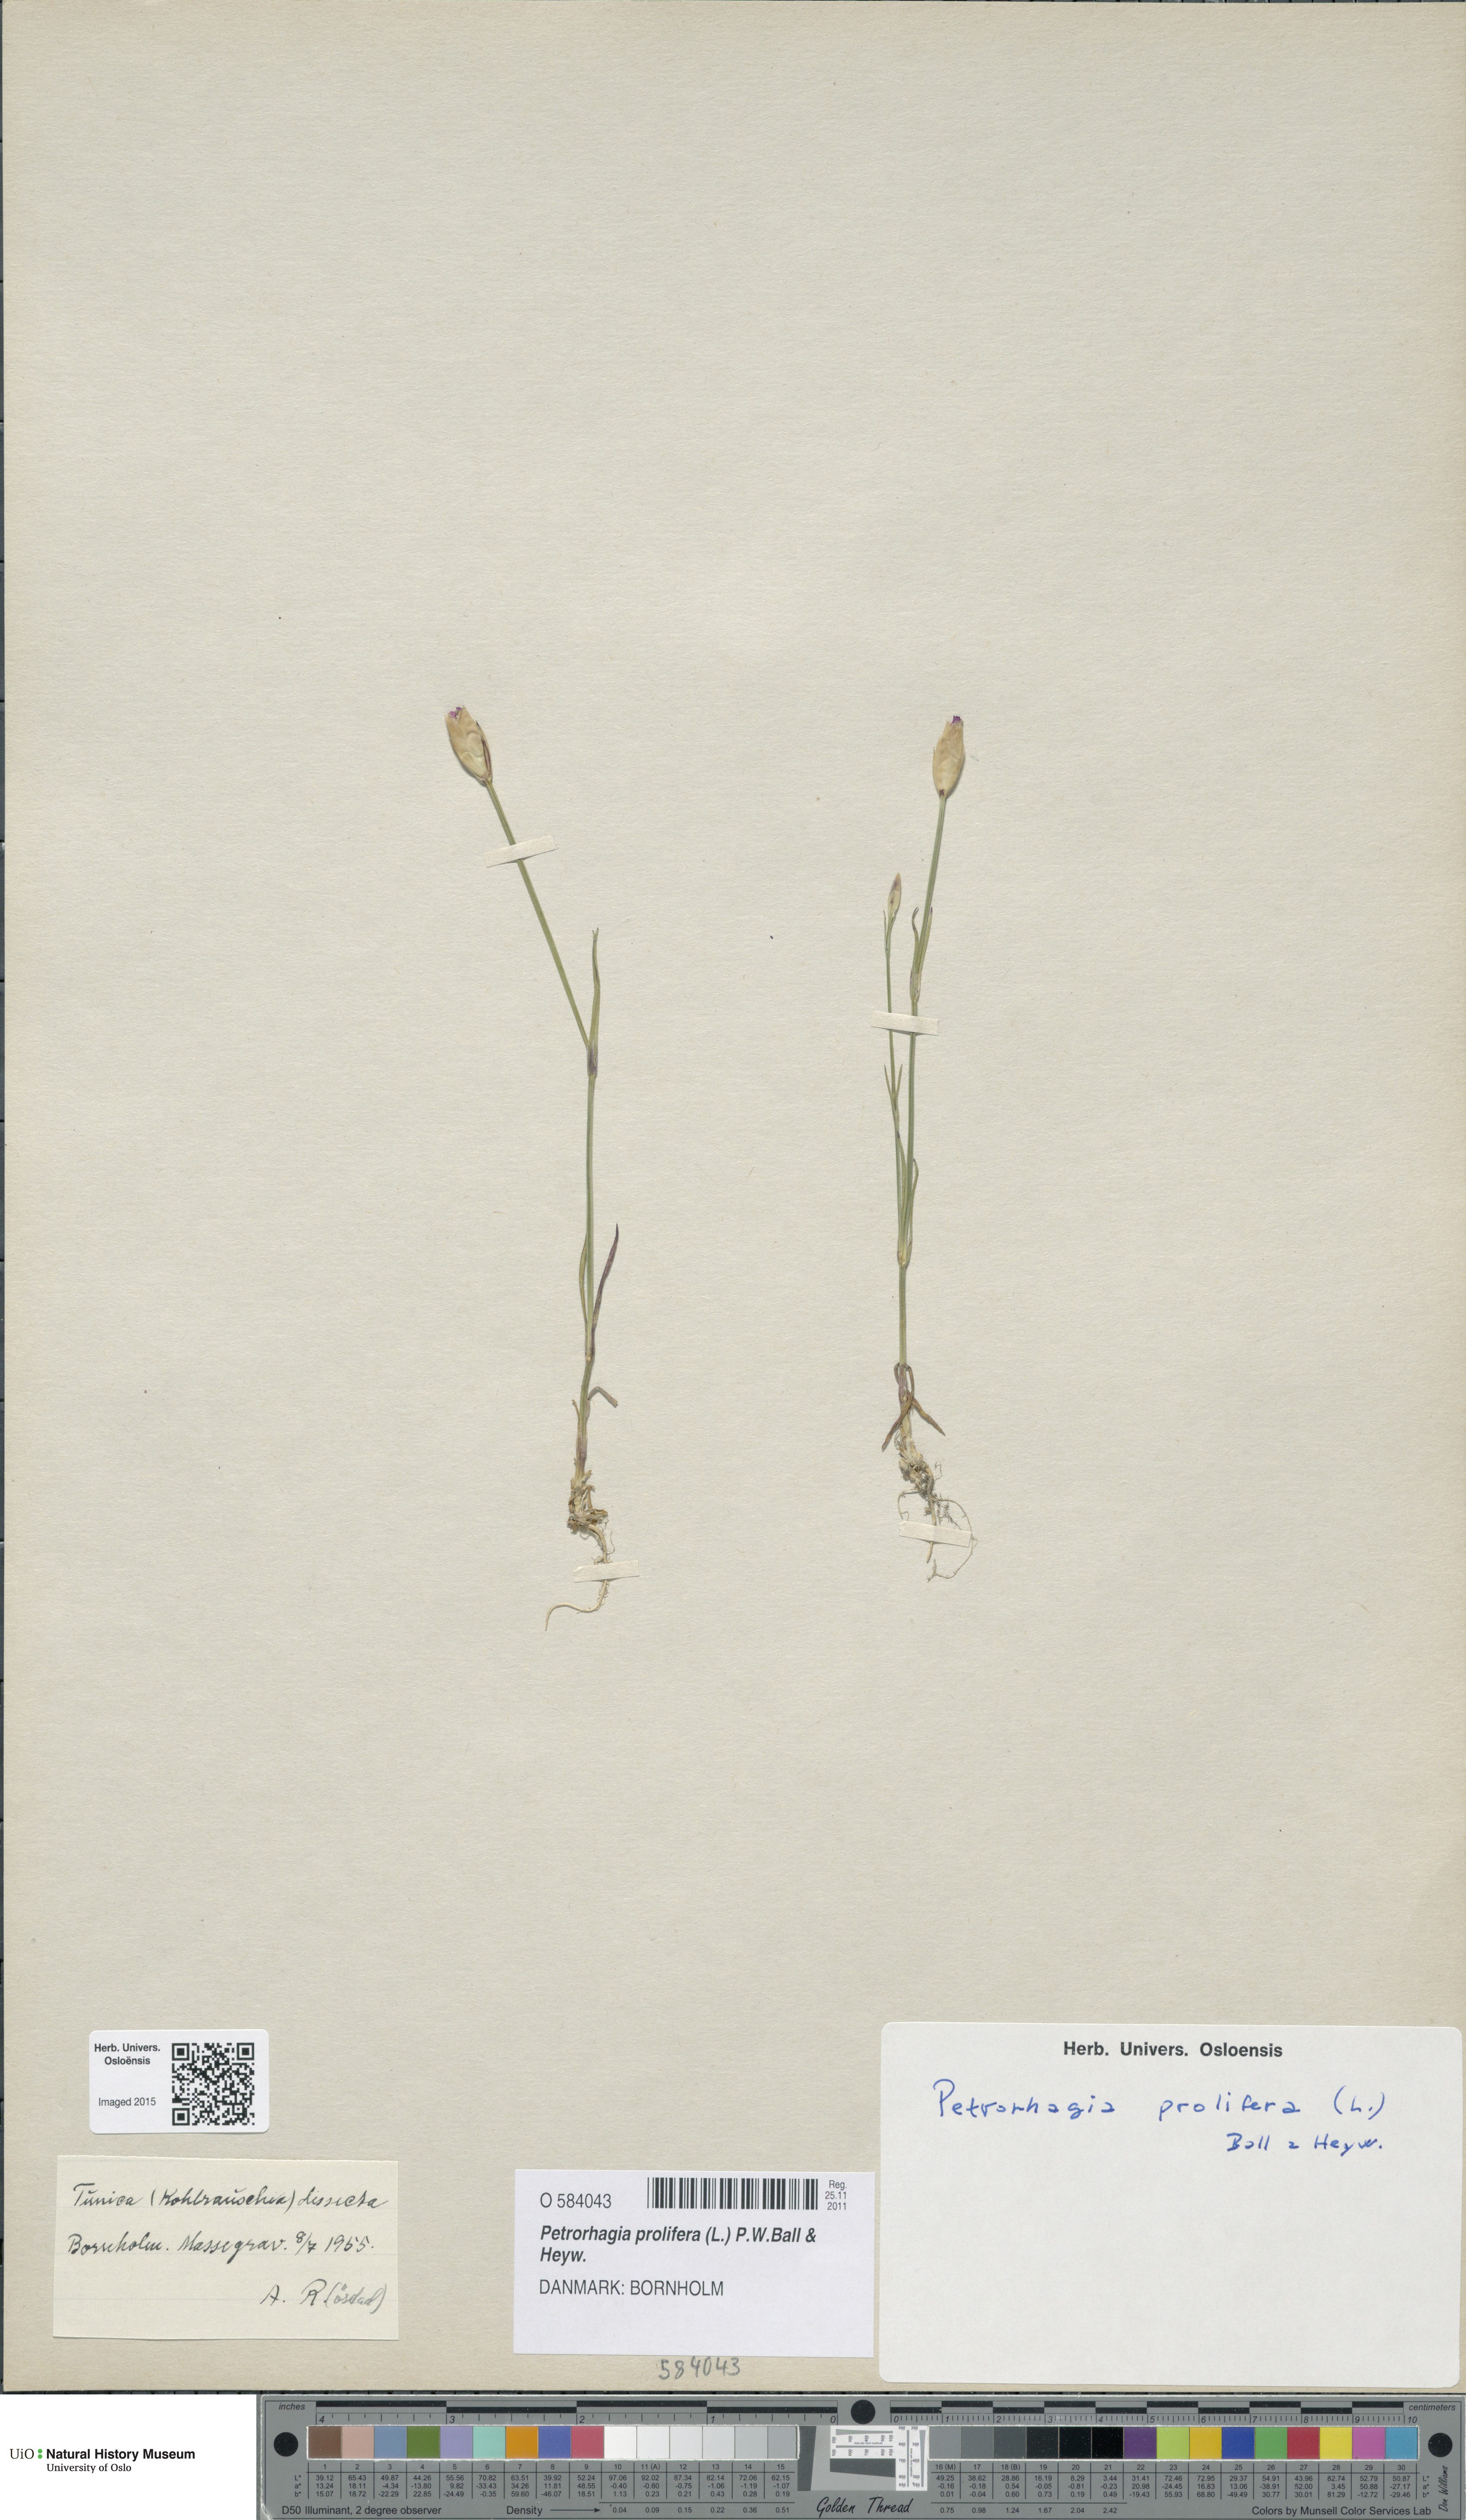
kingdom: Plantae
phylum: Tracheophyta
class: Magnoliopsida
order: Caryophyllales
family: Caryophyllaceae
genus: Petrorhagia
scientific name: Petrorhagia prolifera
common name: Proliferous pink
